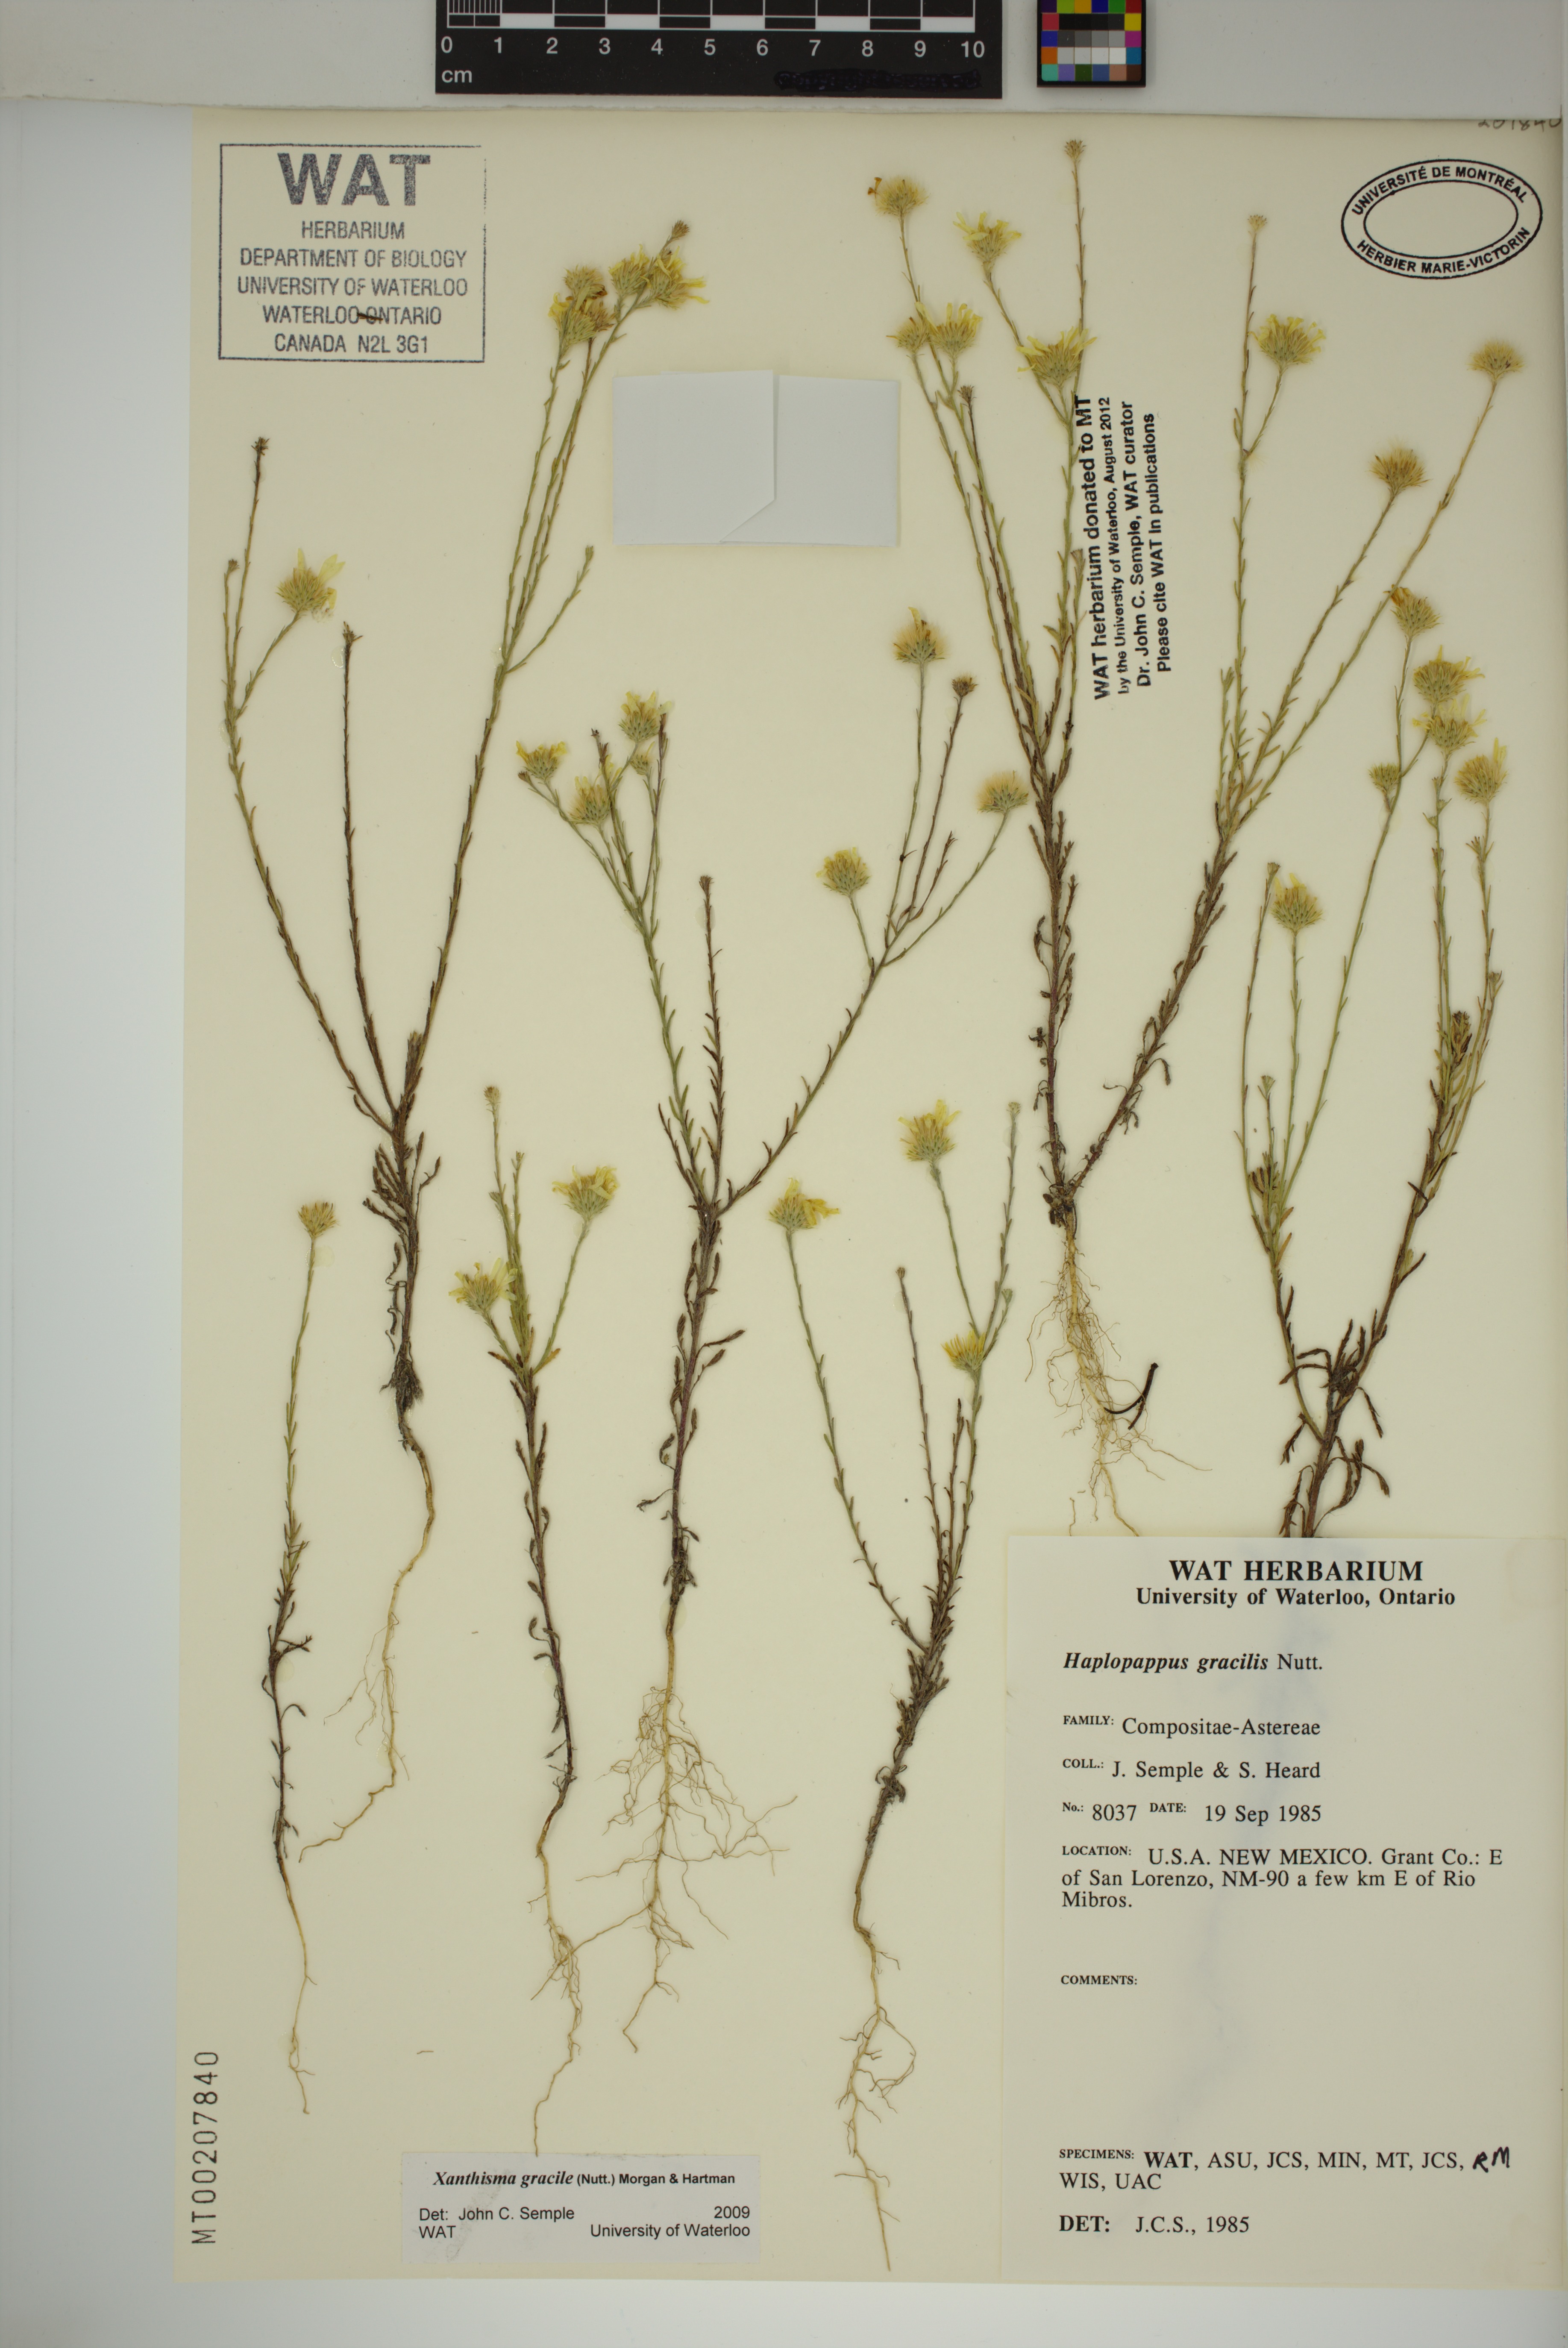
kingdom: Plantae
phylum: Tracheophyta
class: Magnoliopsida
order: Asterales
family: Asteraceae
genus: Xanthisma
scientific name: Xanthisma gracile
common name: Slender goldenweed
